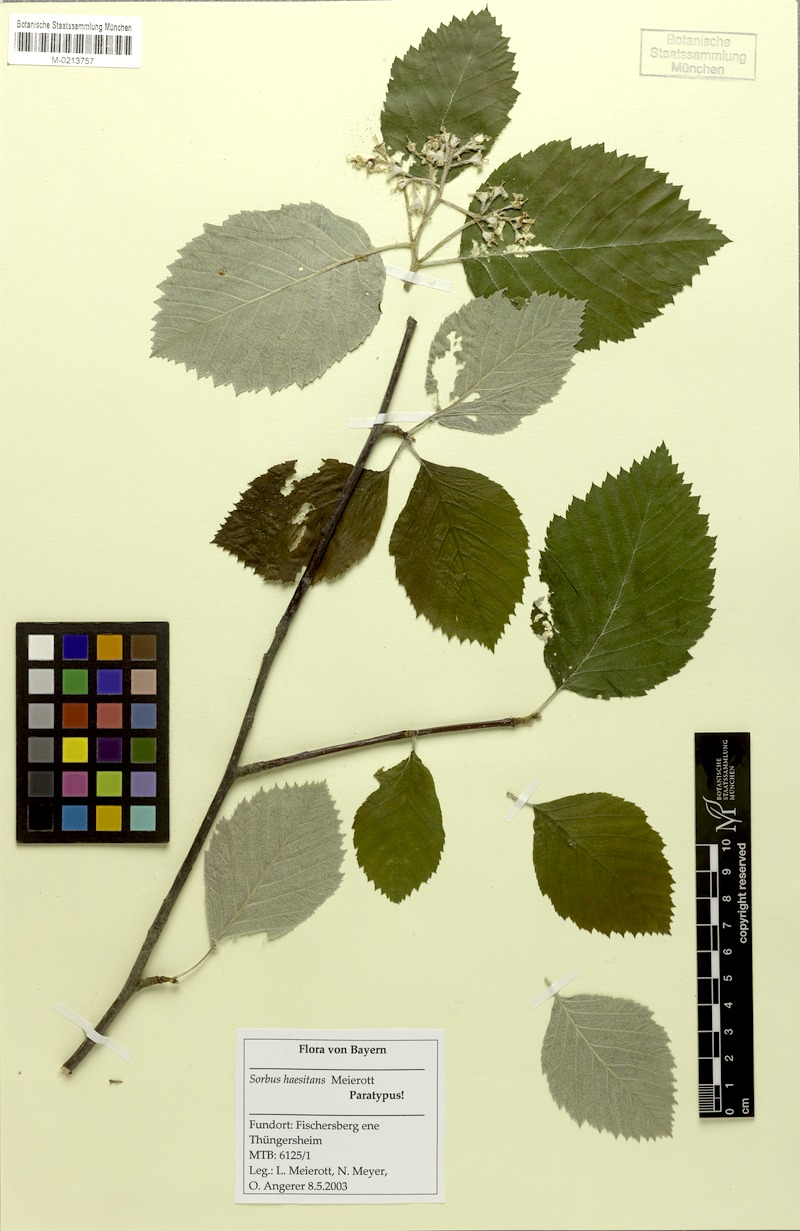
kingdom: Plantae
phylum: Tracheophyta
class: Magnoliopsida
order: Rosales
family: Rosaceae
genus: Karpatiosorbus
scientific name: Karpatiosorbus haesitans
